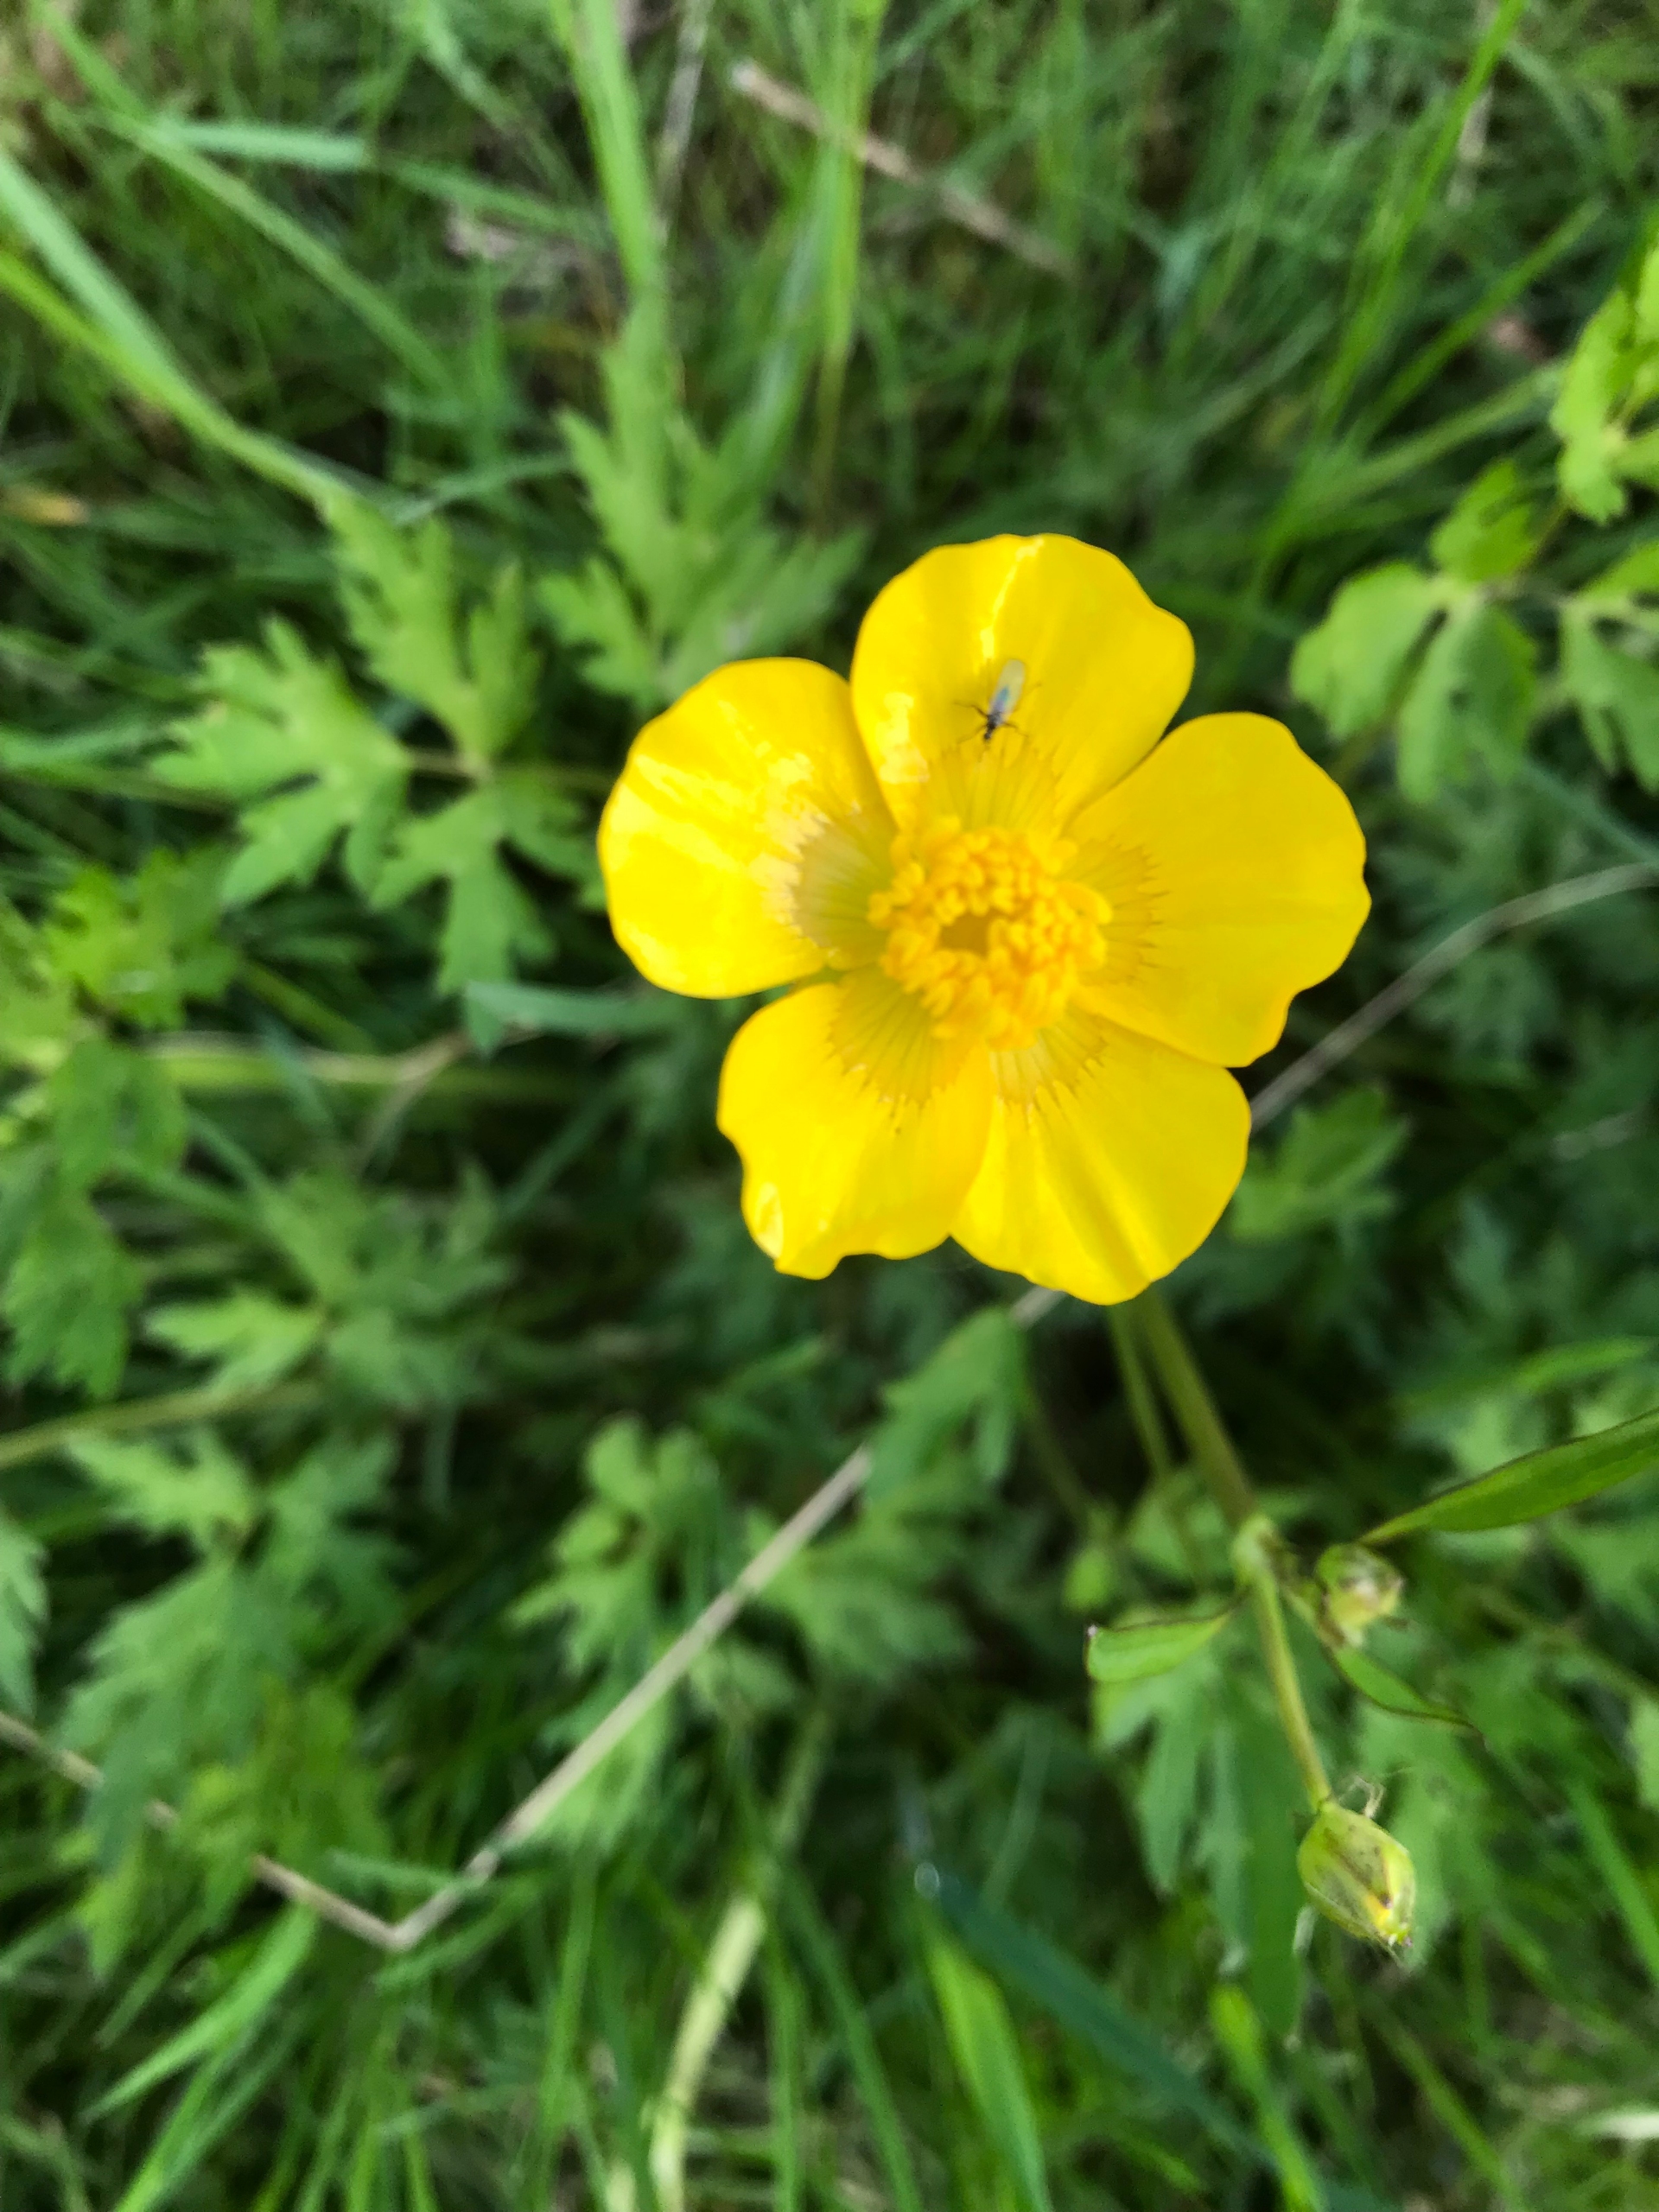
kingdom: Plantae
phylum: Tracheophyta
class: Magnoliopsida
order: Ranunculales
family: Ranunculaceae
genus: Ranunculus
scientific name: Ranunculus repens
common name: Lav ranunkel
